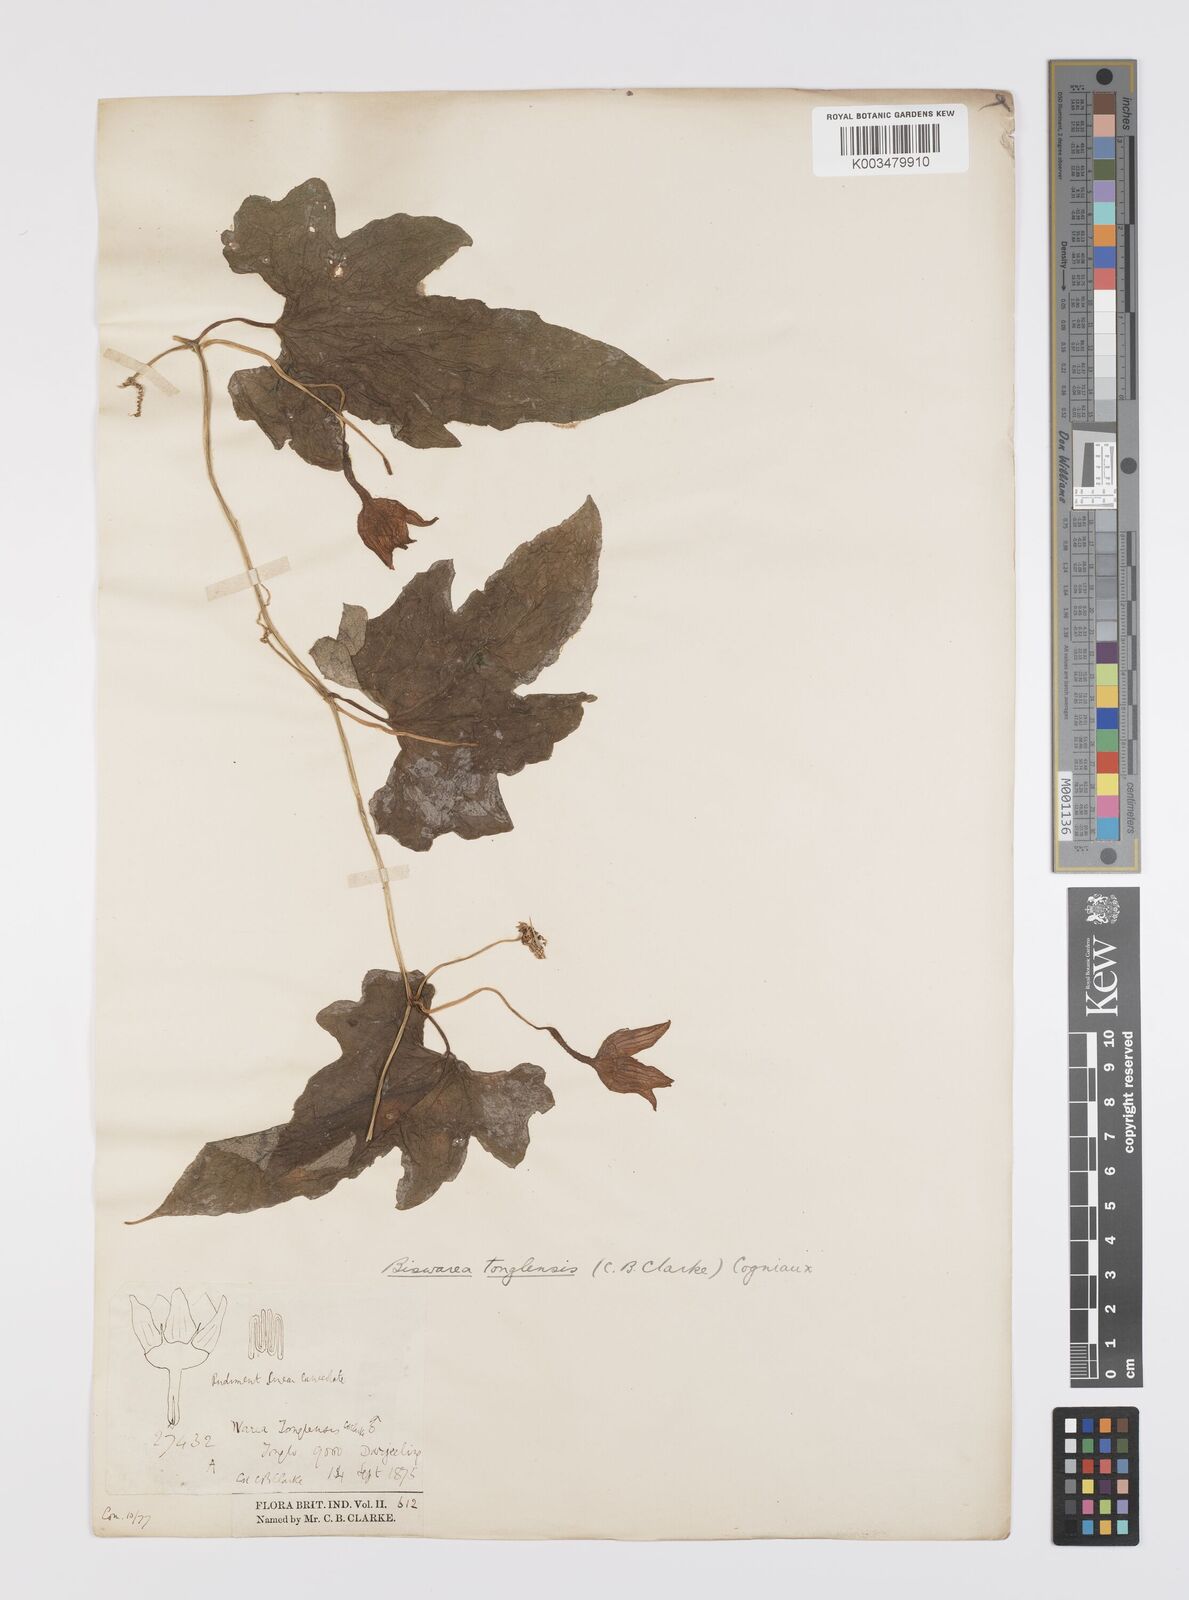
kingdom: Plantae
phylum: Tracheophyta
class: Magnoliopsida
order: Cucurbitales
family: Cucurbitaceae
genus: Benincasa
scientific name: Benincasa
